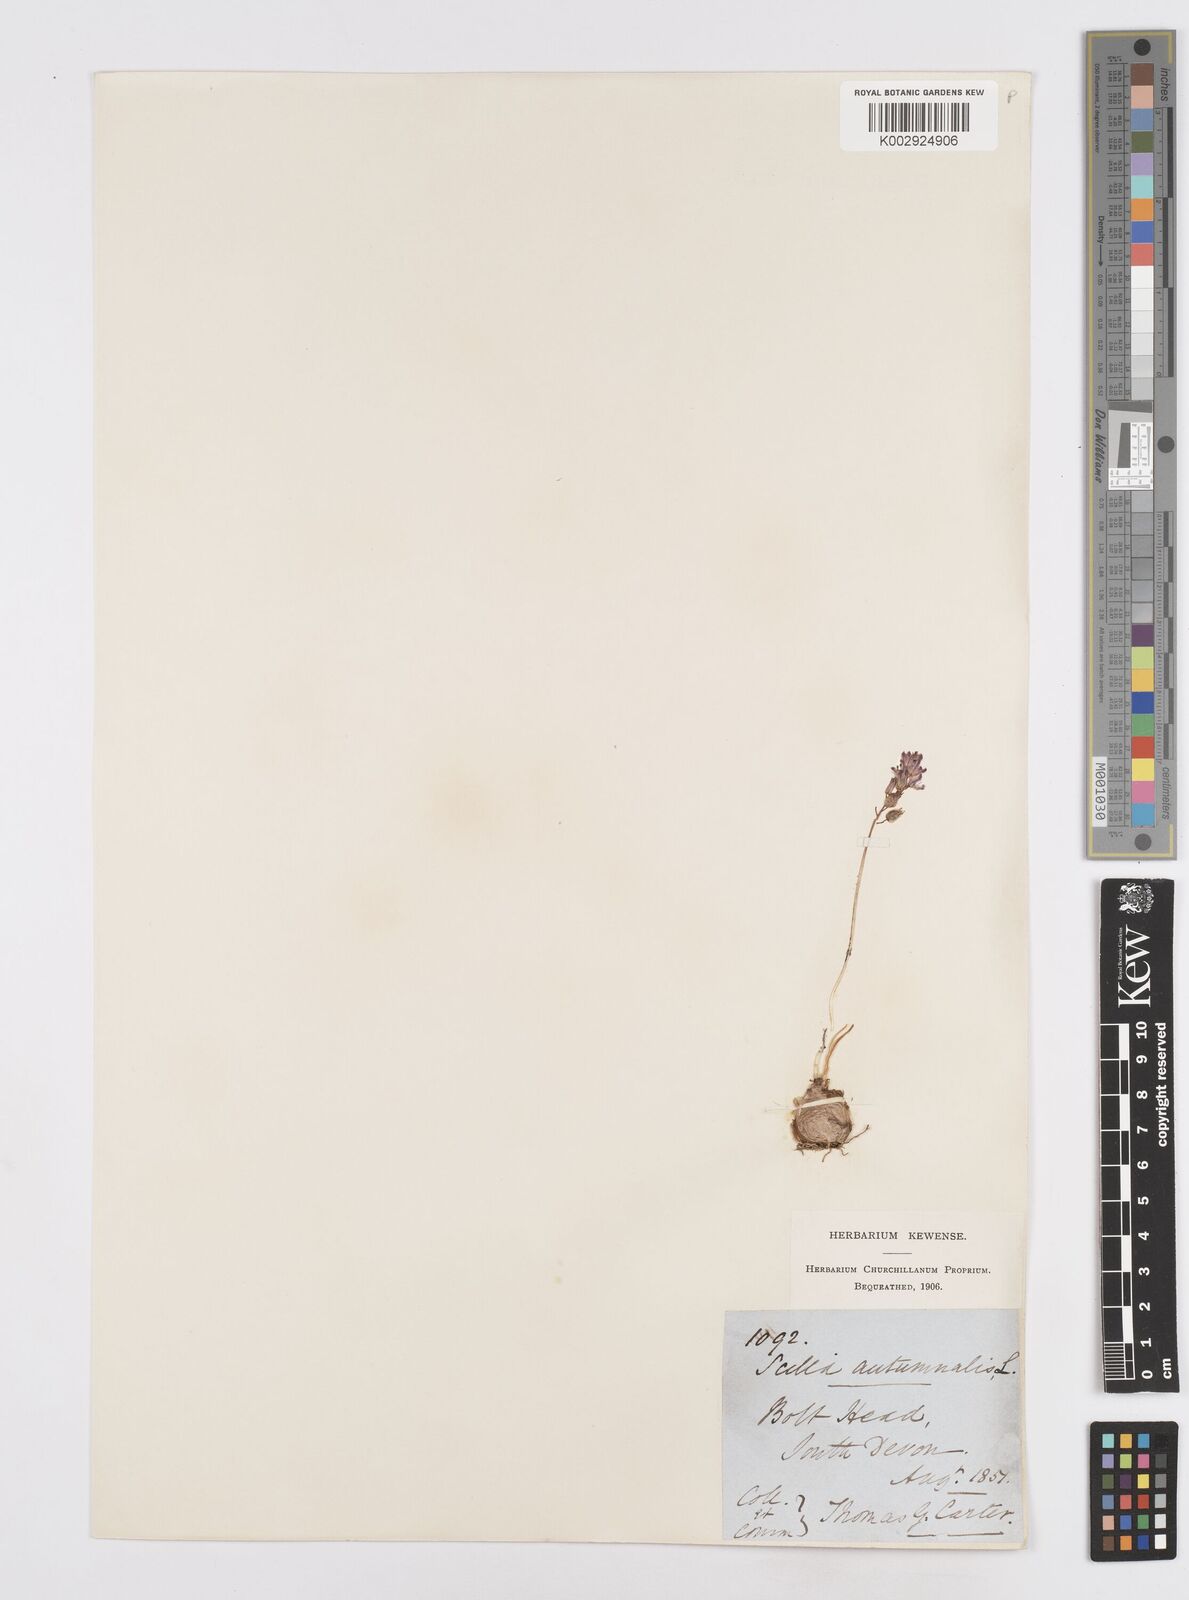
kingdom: Plantae
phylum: Tracheophyta
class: Liliopsida
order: Asparagales
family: Asparagaceae
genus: Prospero
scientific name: Prospero autumnale
